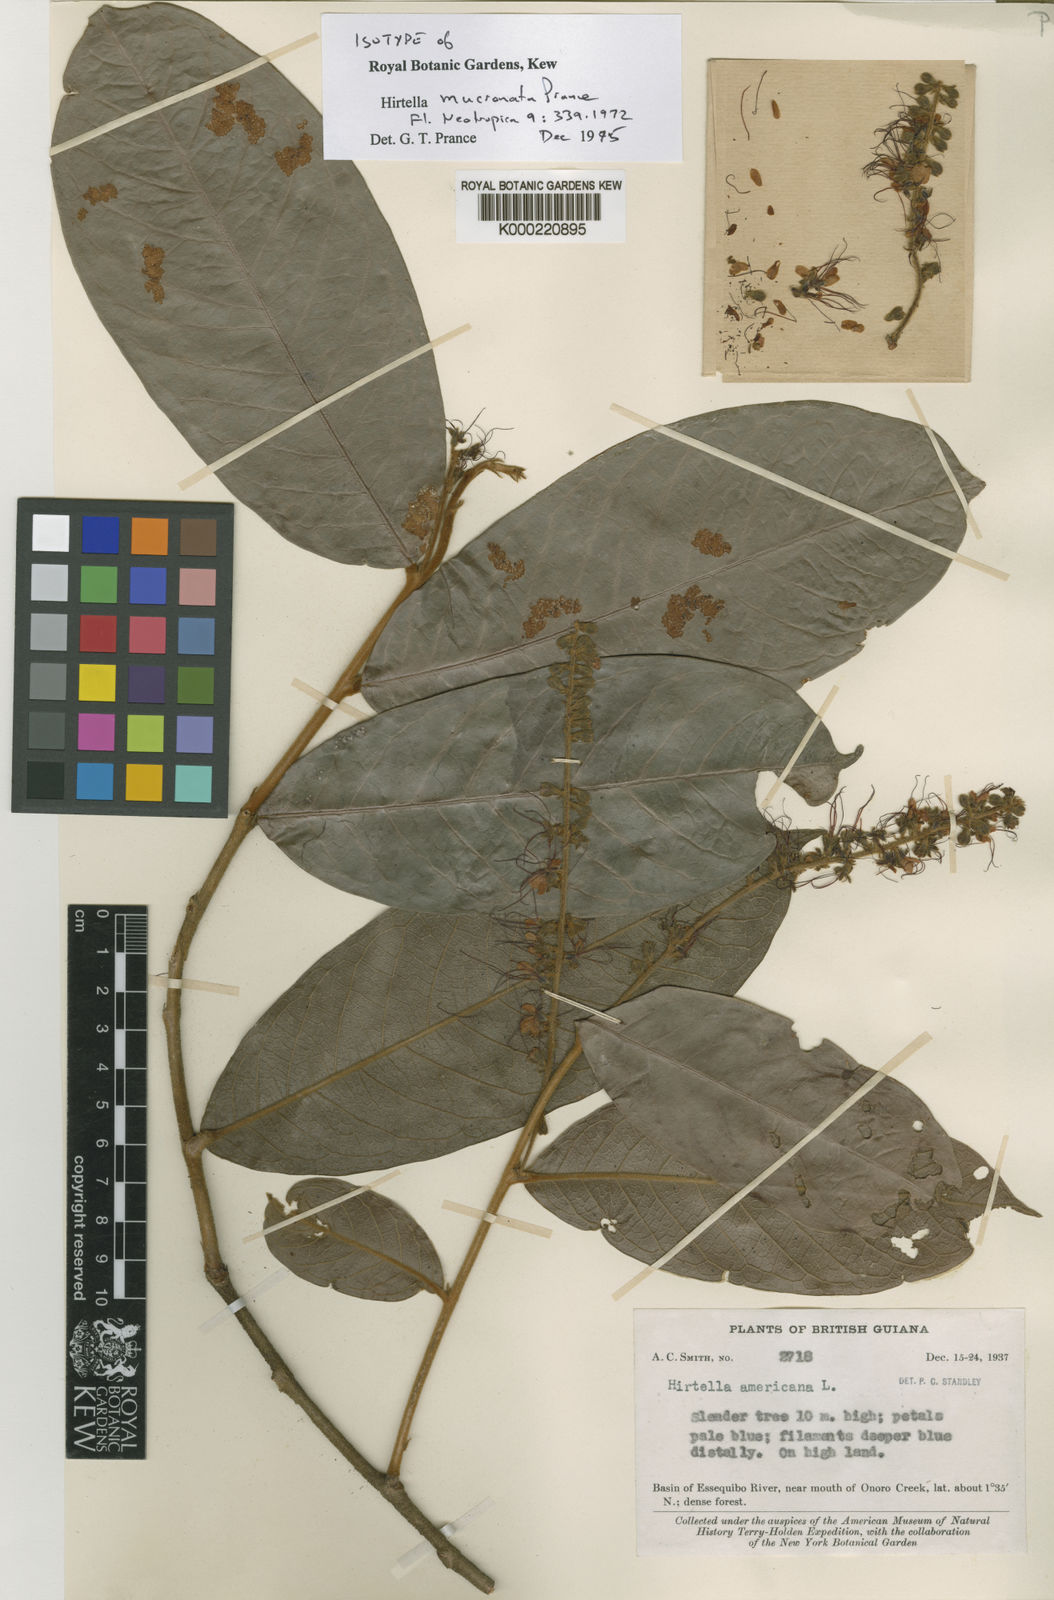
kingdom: Plantae
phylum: Tracheophyta
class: Magnoliopsida
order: Malpighiales
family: Chrysobalanaceae
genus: Hirtella
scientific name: Hirtella mucronata
